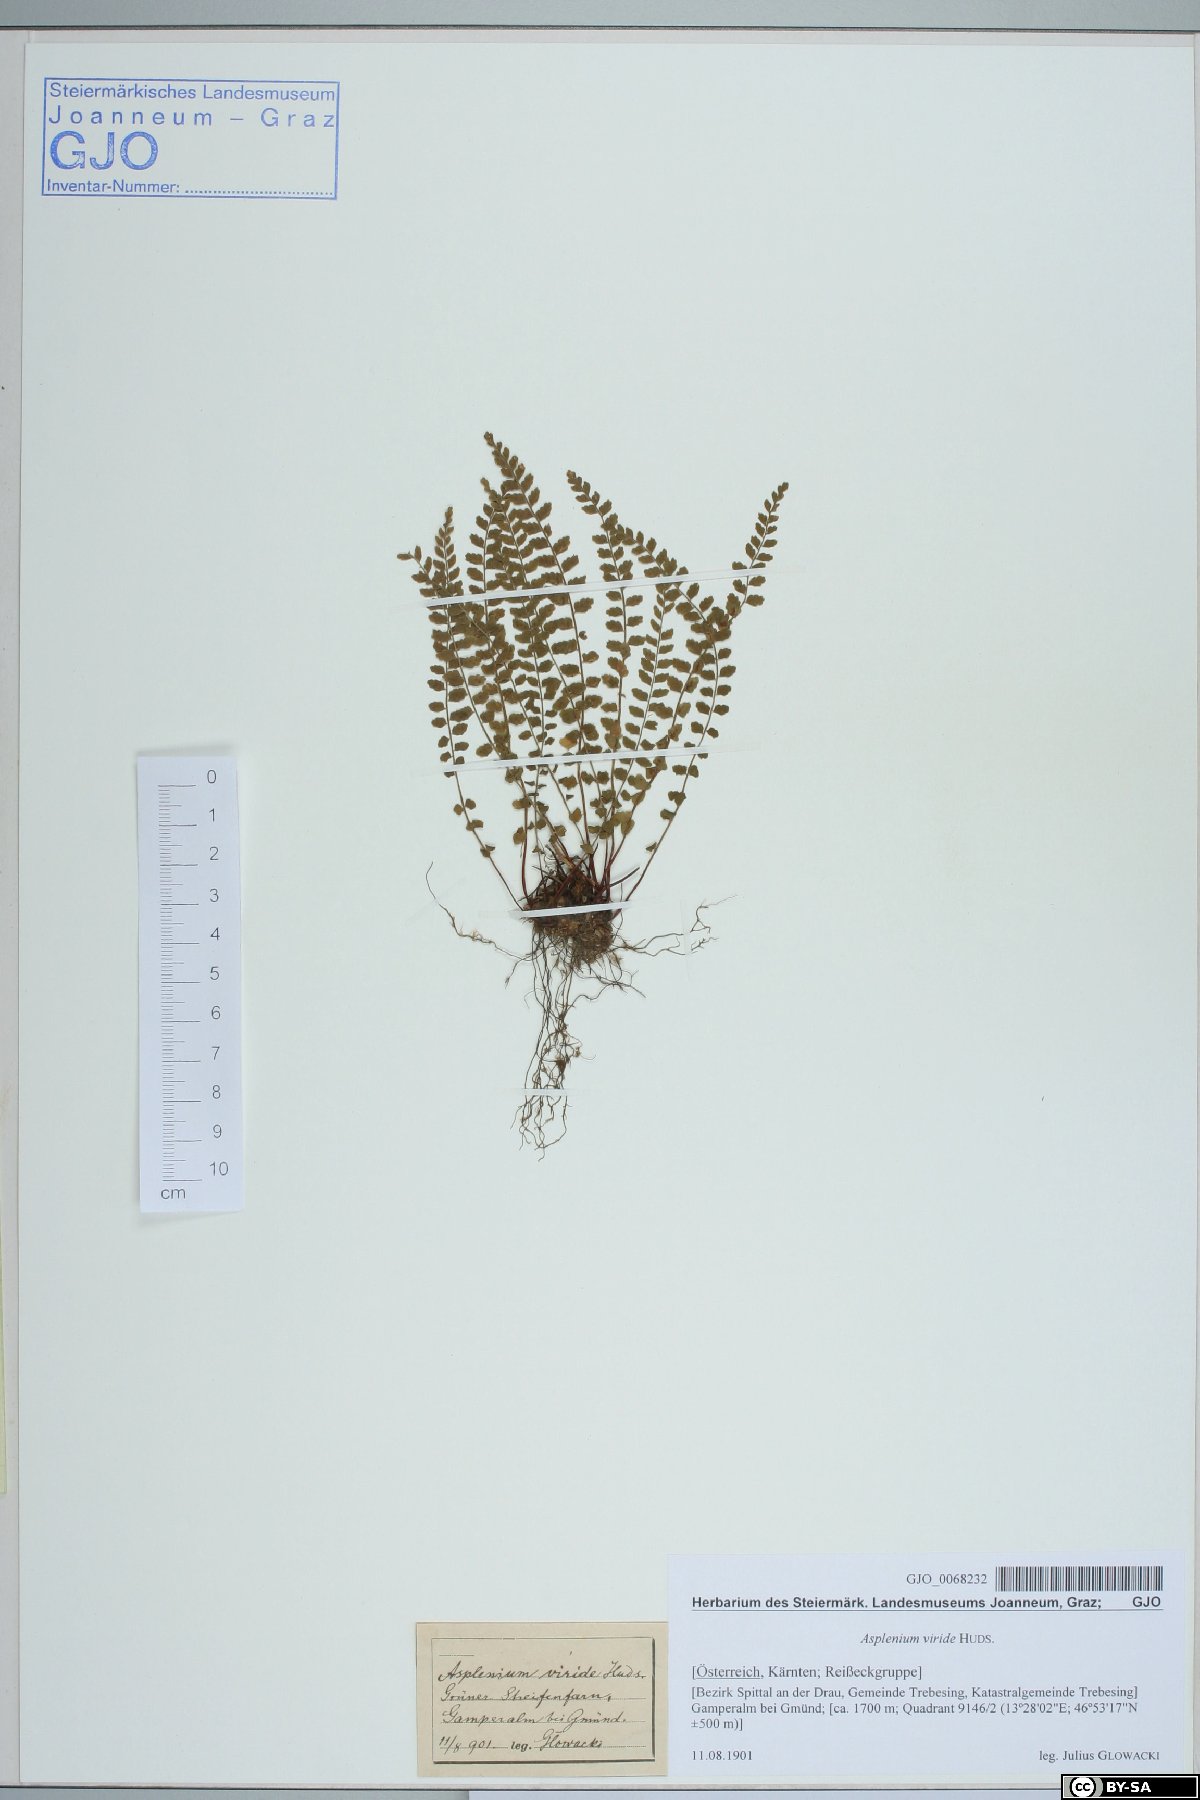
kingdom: Plantae
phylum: Tracheophyta
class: Polypodiopsida
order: Polypodiales
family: Aspleniaceae
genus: Asplenium
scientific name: Asplenium viride
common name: Green spleenwort
